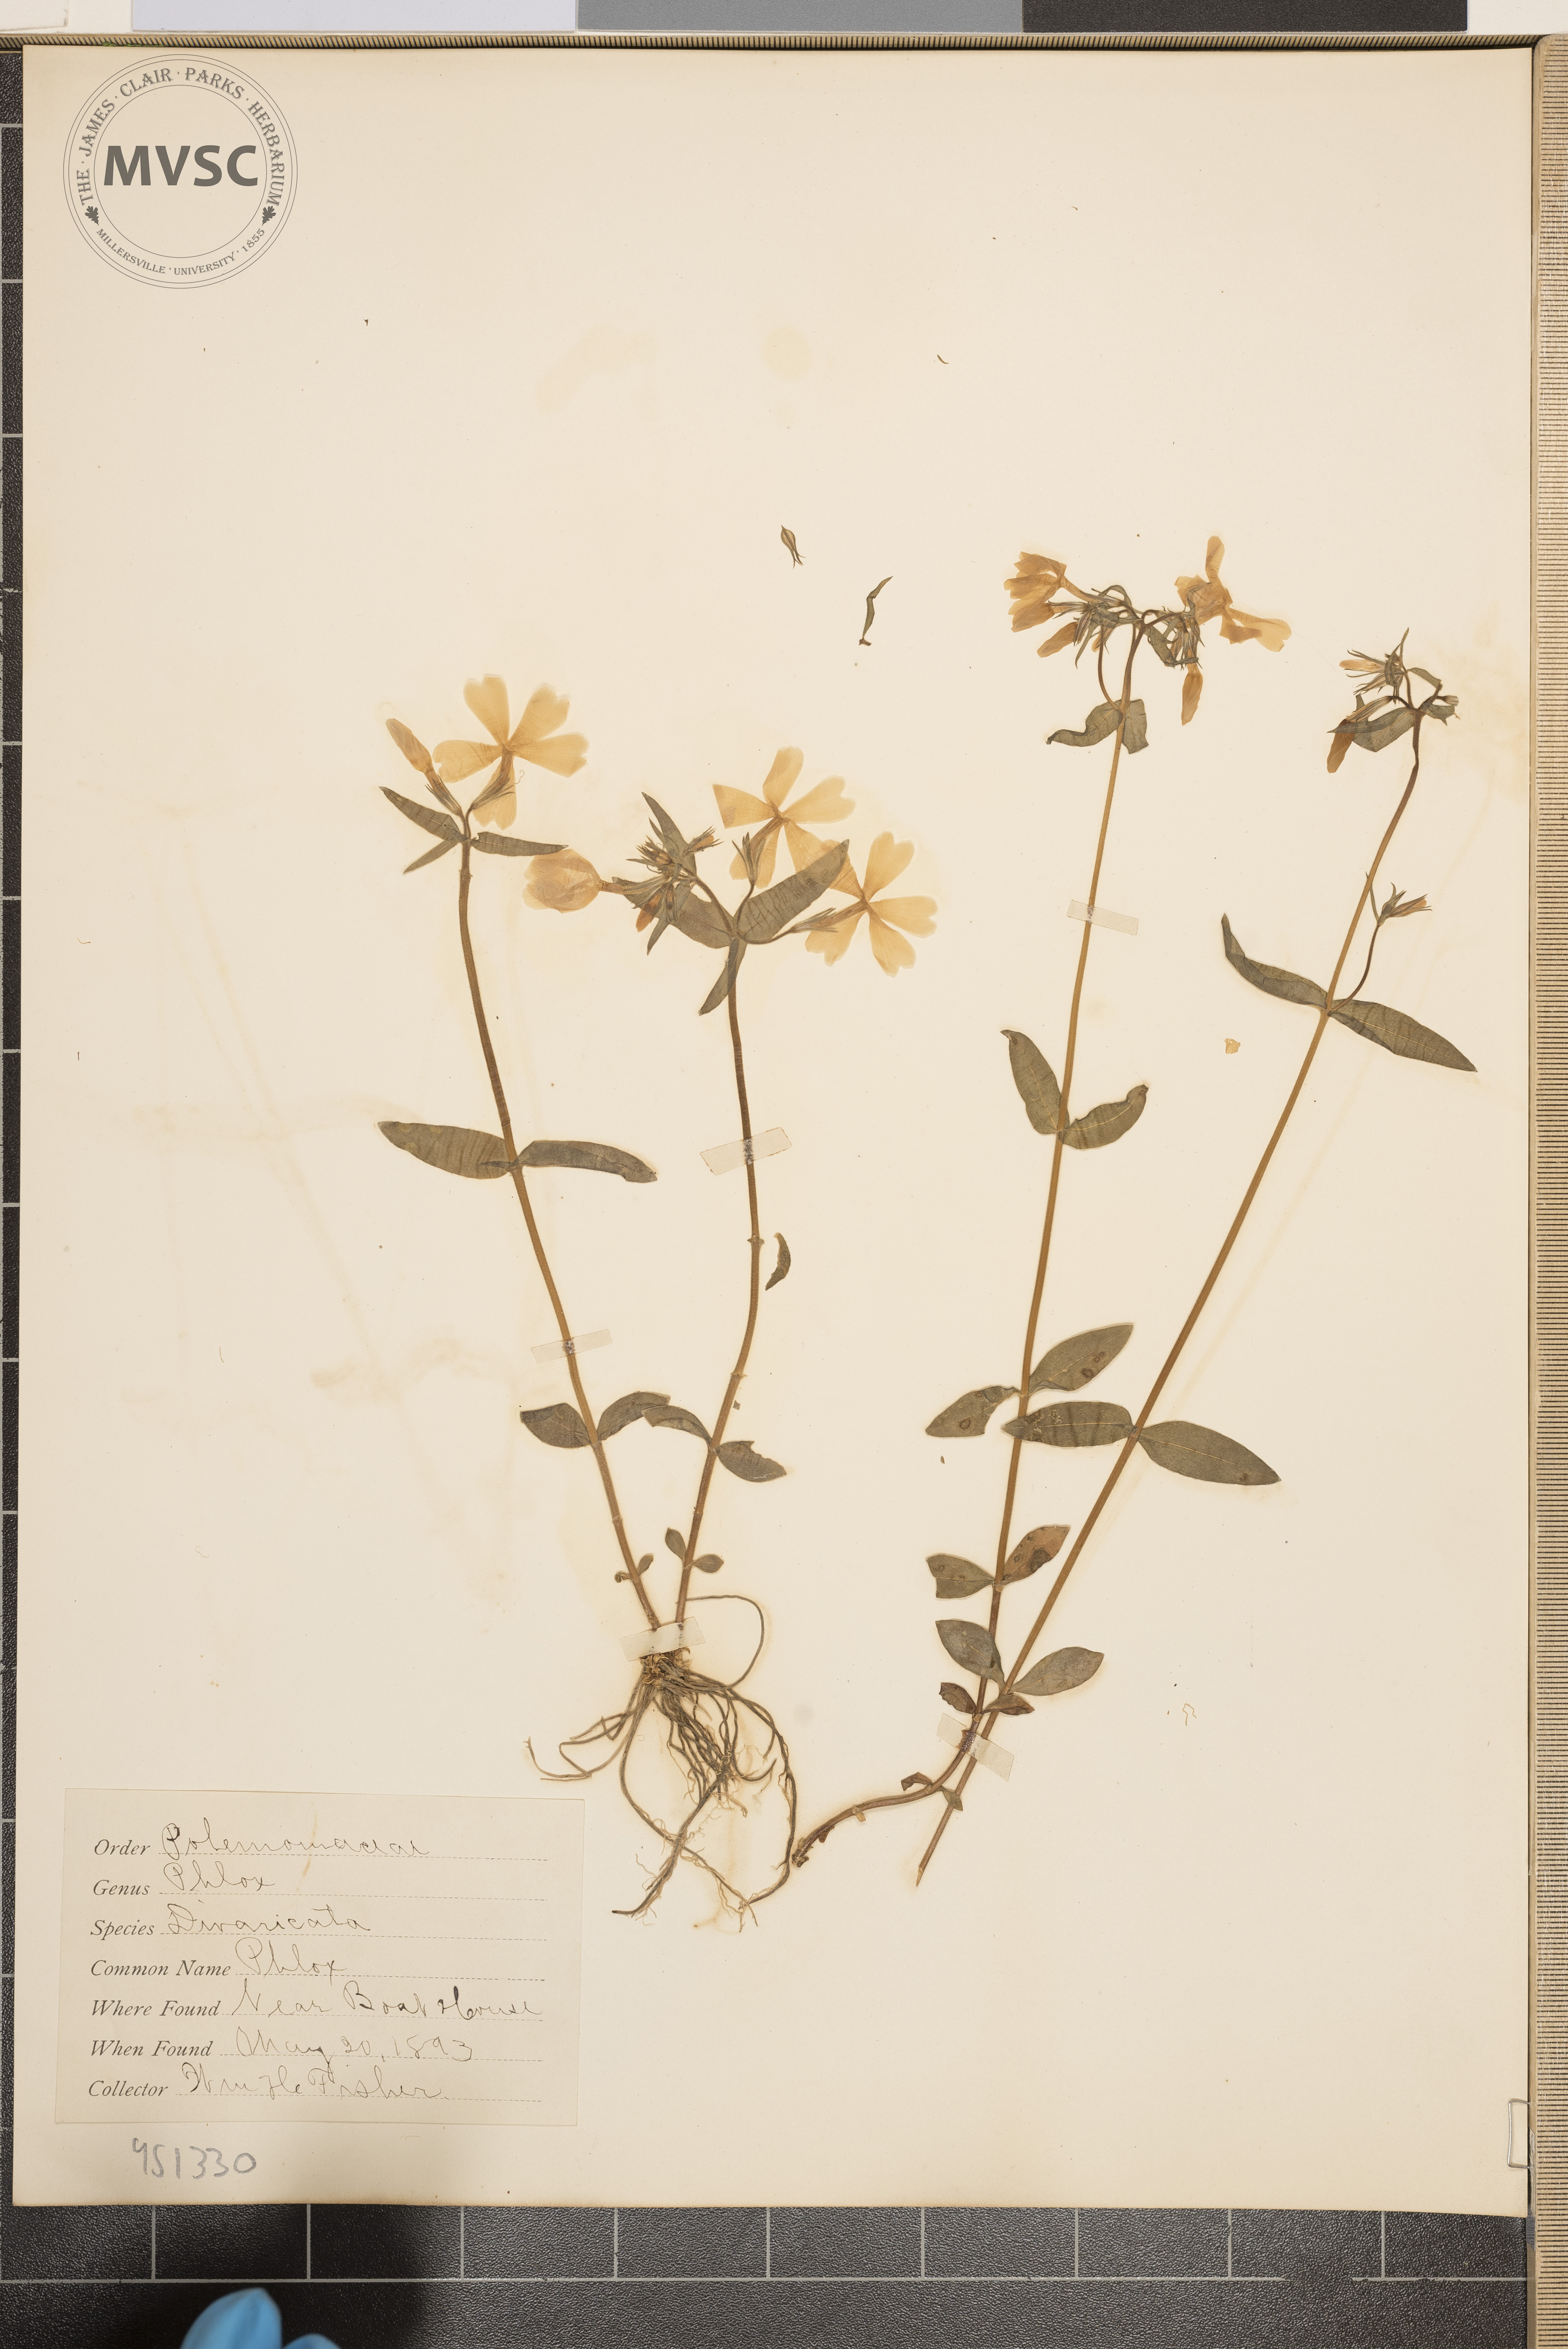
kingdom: Plantae
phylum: Tracheophyta
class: Magnoliopsida
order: Ericales
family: Polemoniaceae
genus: Phlox
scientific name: Phlox divaricata
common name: Phlox
